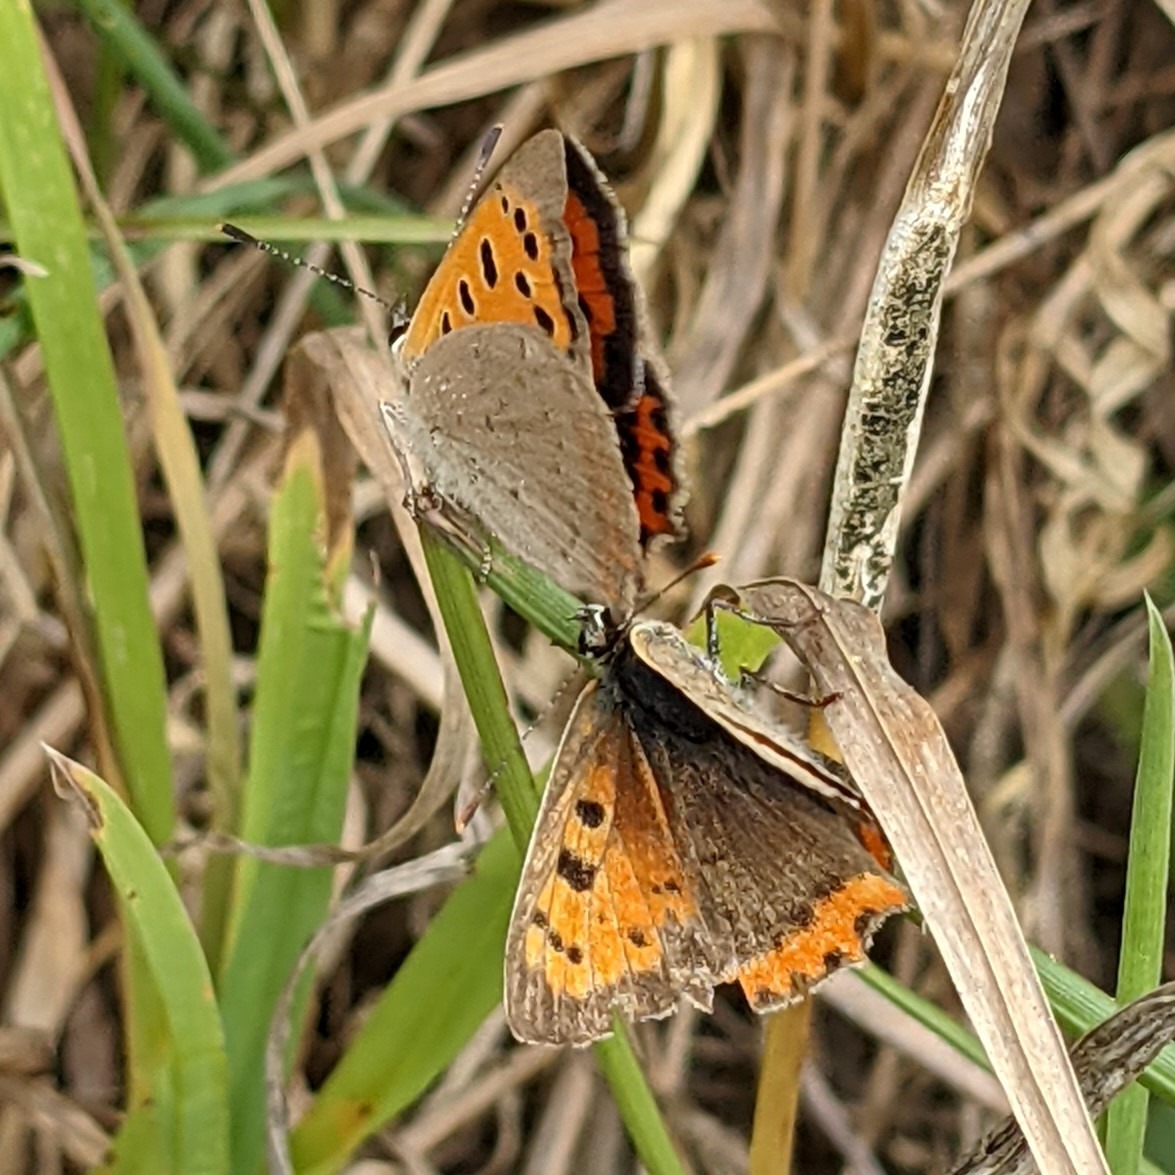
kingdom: Animalia
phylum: Arthropoda
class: Insecta
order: Lepidoptera
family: Lycaenidae
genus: Lycaena
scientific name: Lycaena phlaeas
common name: Lille ildfugl
